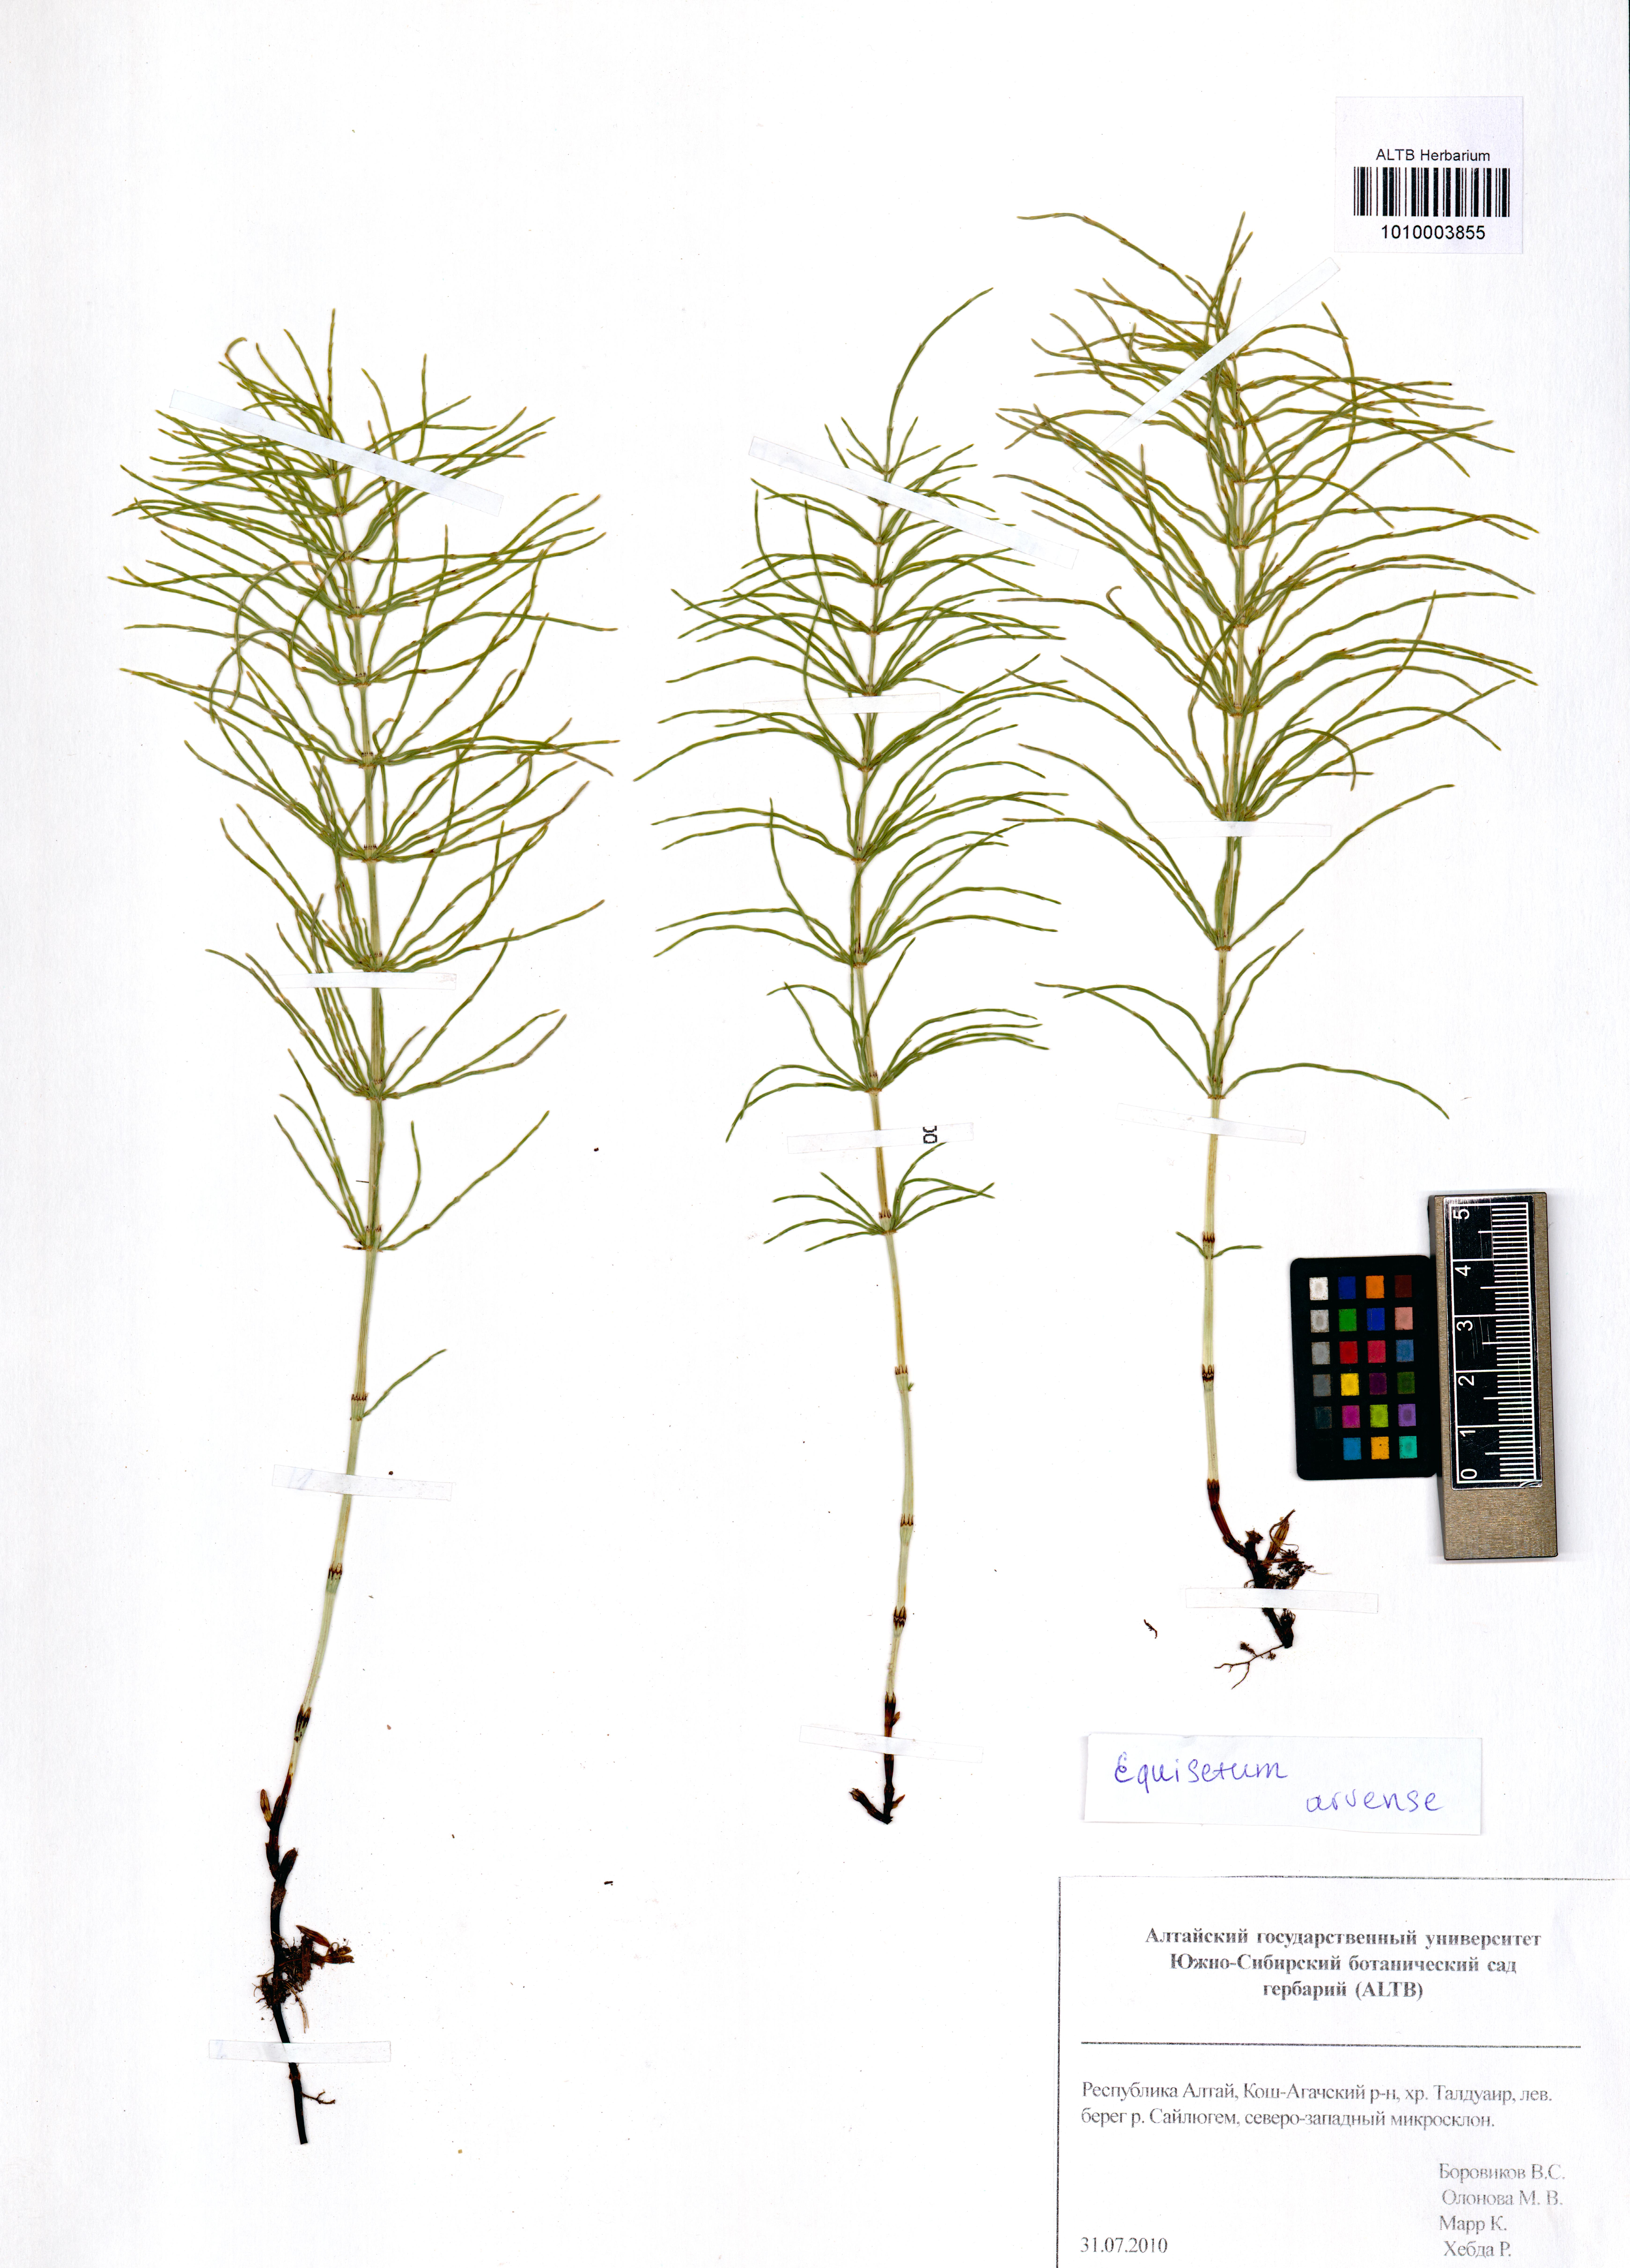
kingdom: Plantae
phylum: Tracheophyta
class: Polypodiopsida
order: Equisetales
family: Equisetaceae
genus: Equisetum
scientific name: Equisetum arvense
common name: Field horsetail
